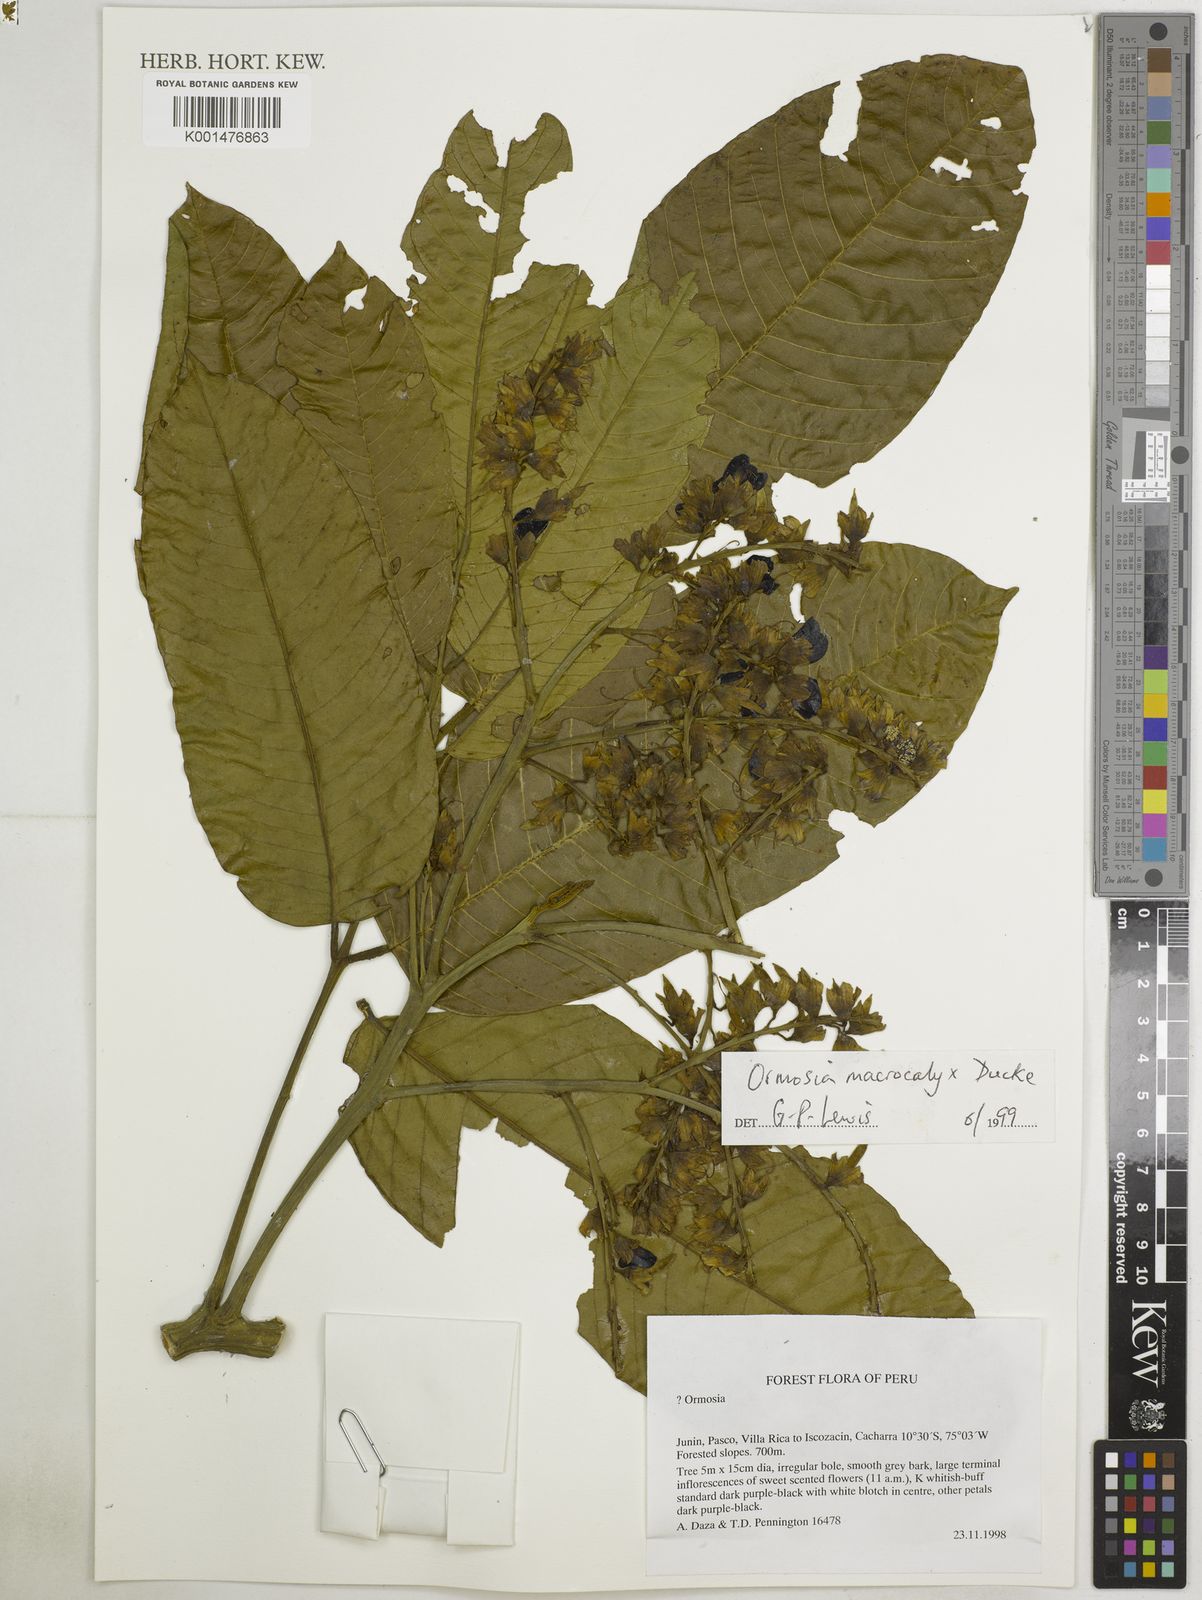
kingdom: Plantae
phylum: Tracheophyta
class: Magnoliopsida
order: Fabales
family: Fabaceae
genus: Ormosia
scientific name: Ormosia macrocalyx
